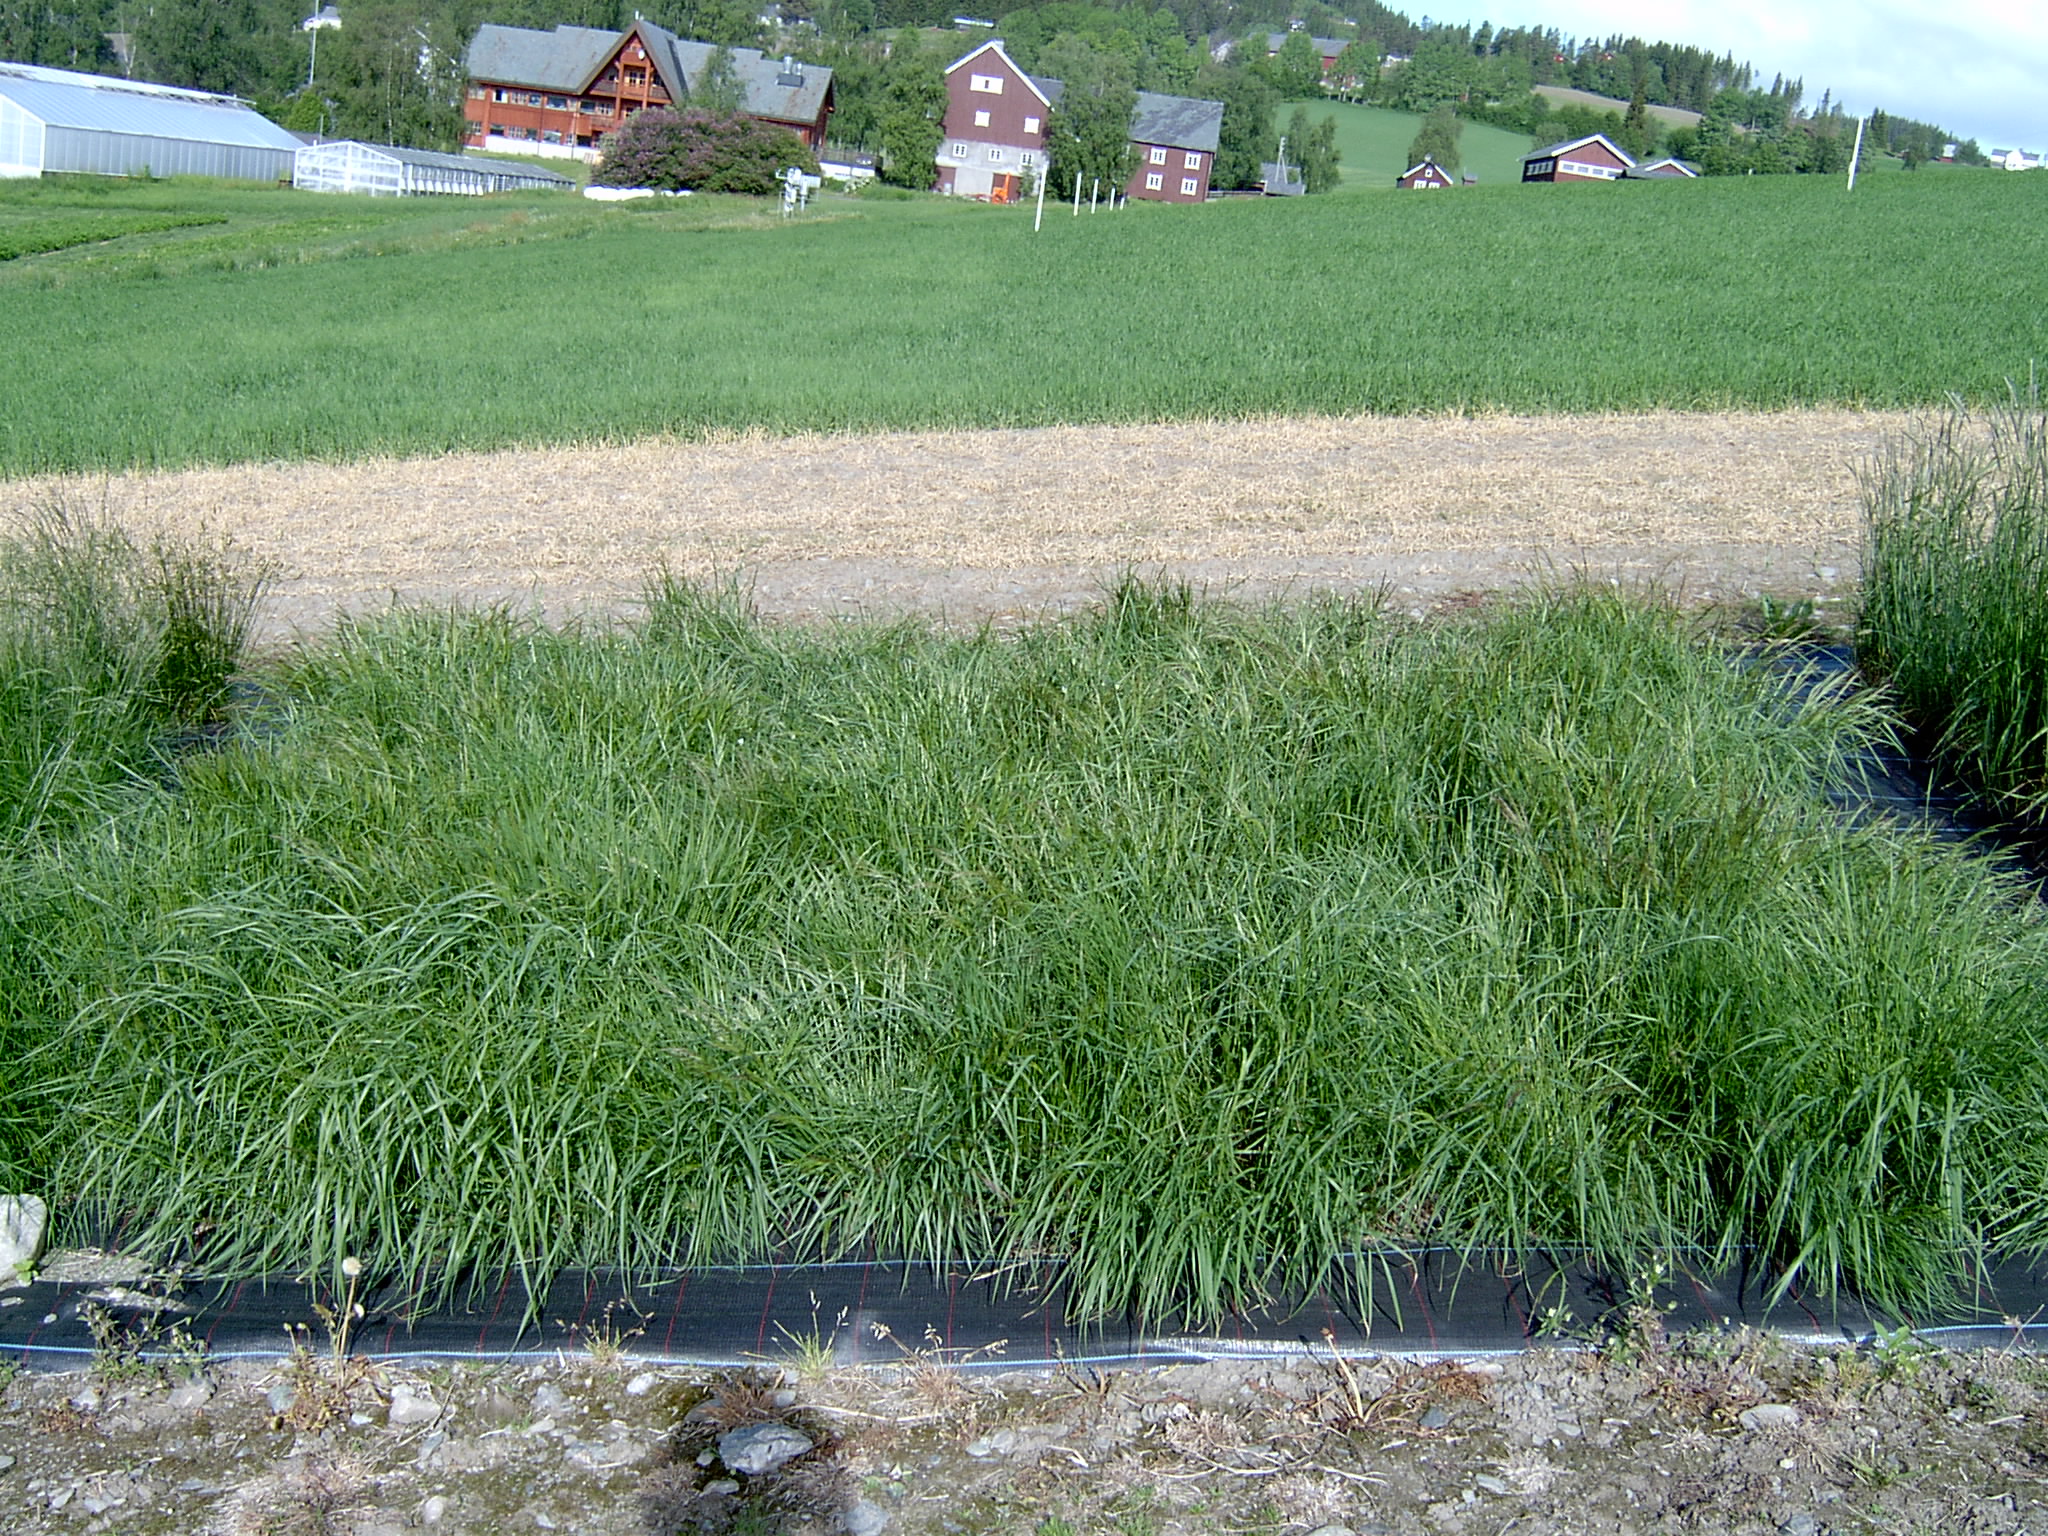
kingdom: Plantae
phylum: Tracheophyta
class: Liliopsida
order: Poales
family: Poaceae
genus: Agrostis
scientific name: Agrostis capillaris
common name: Colonial bentgrass
